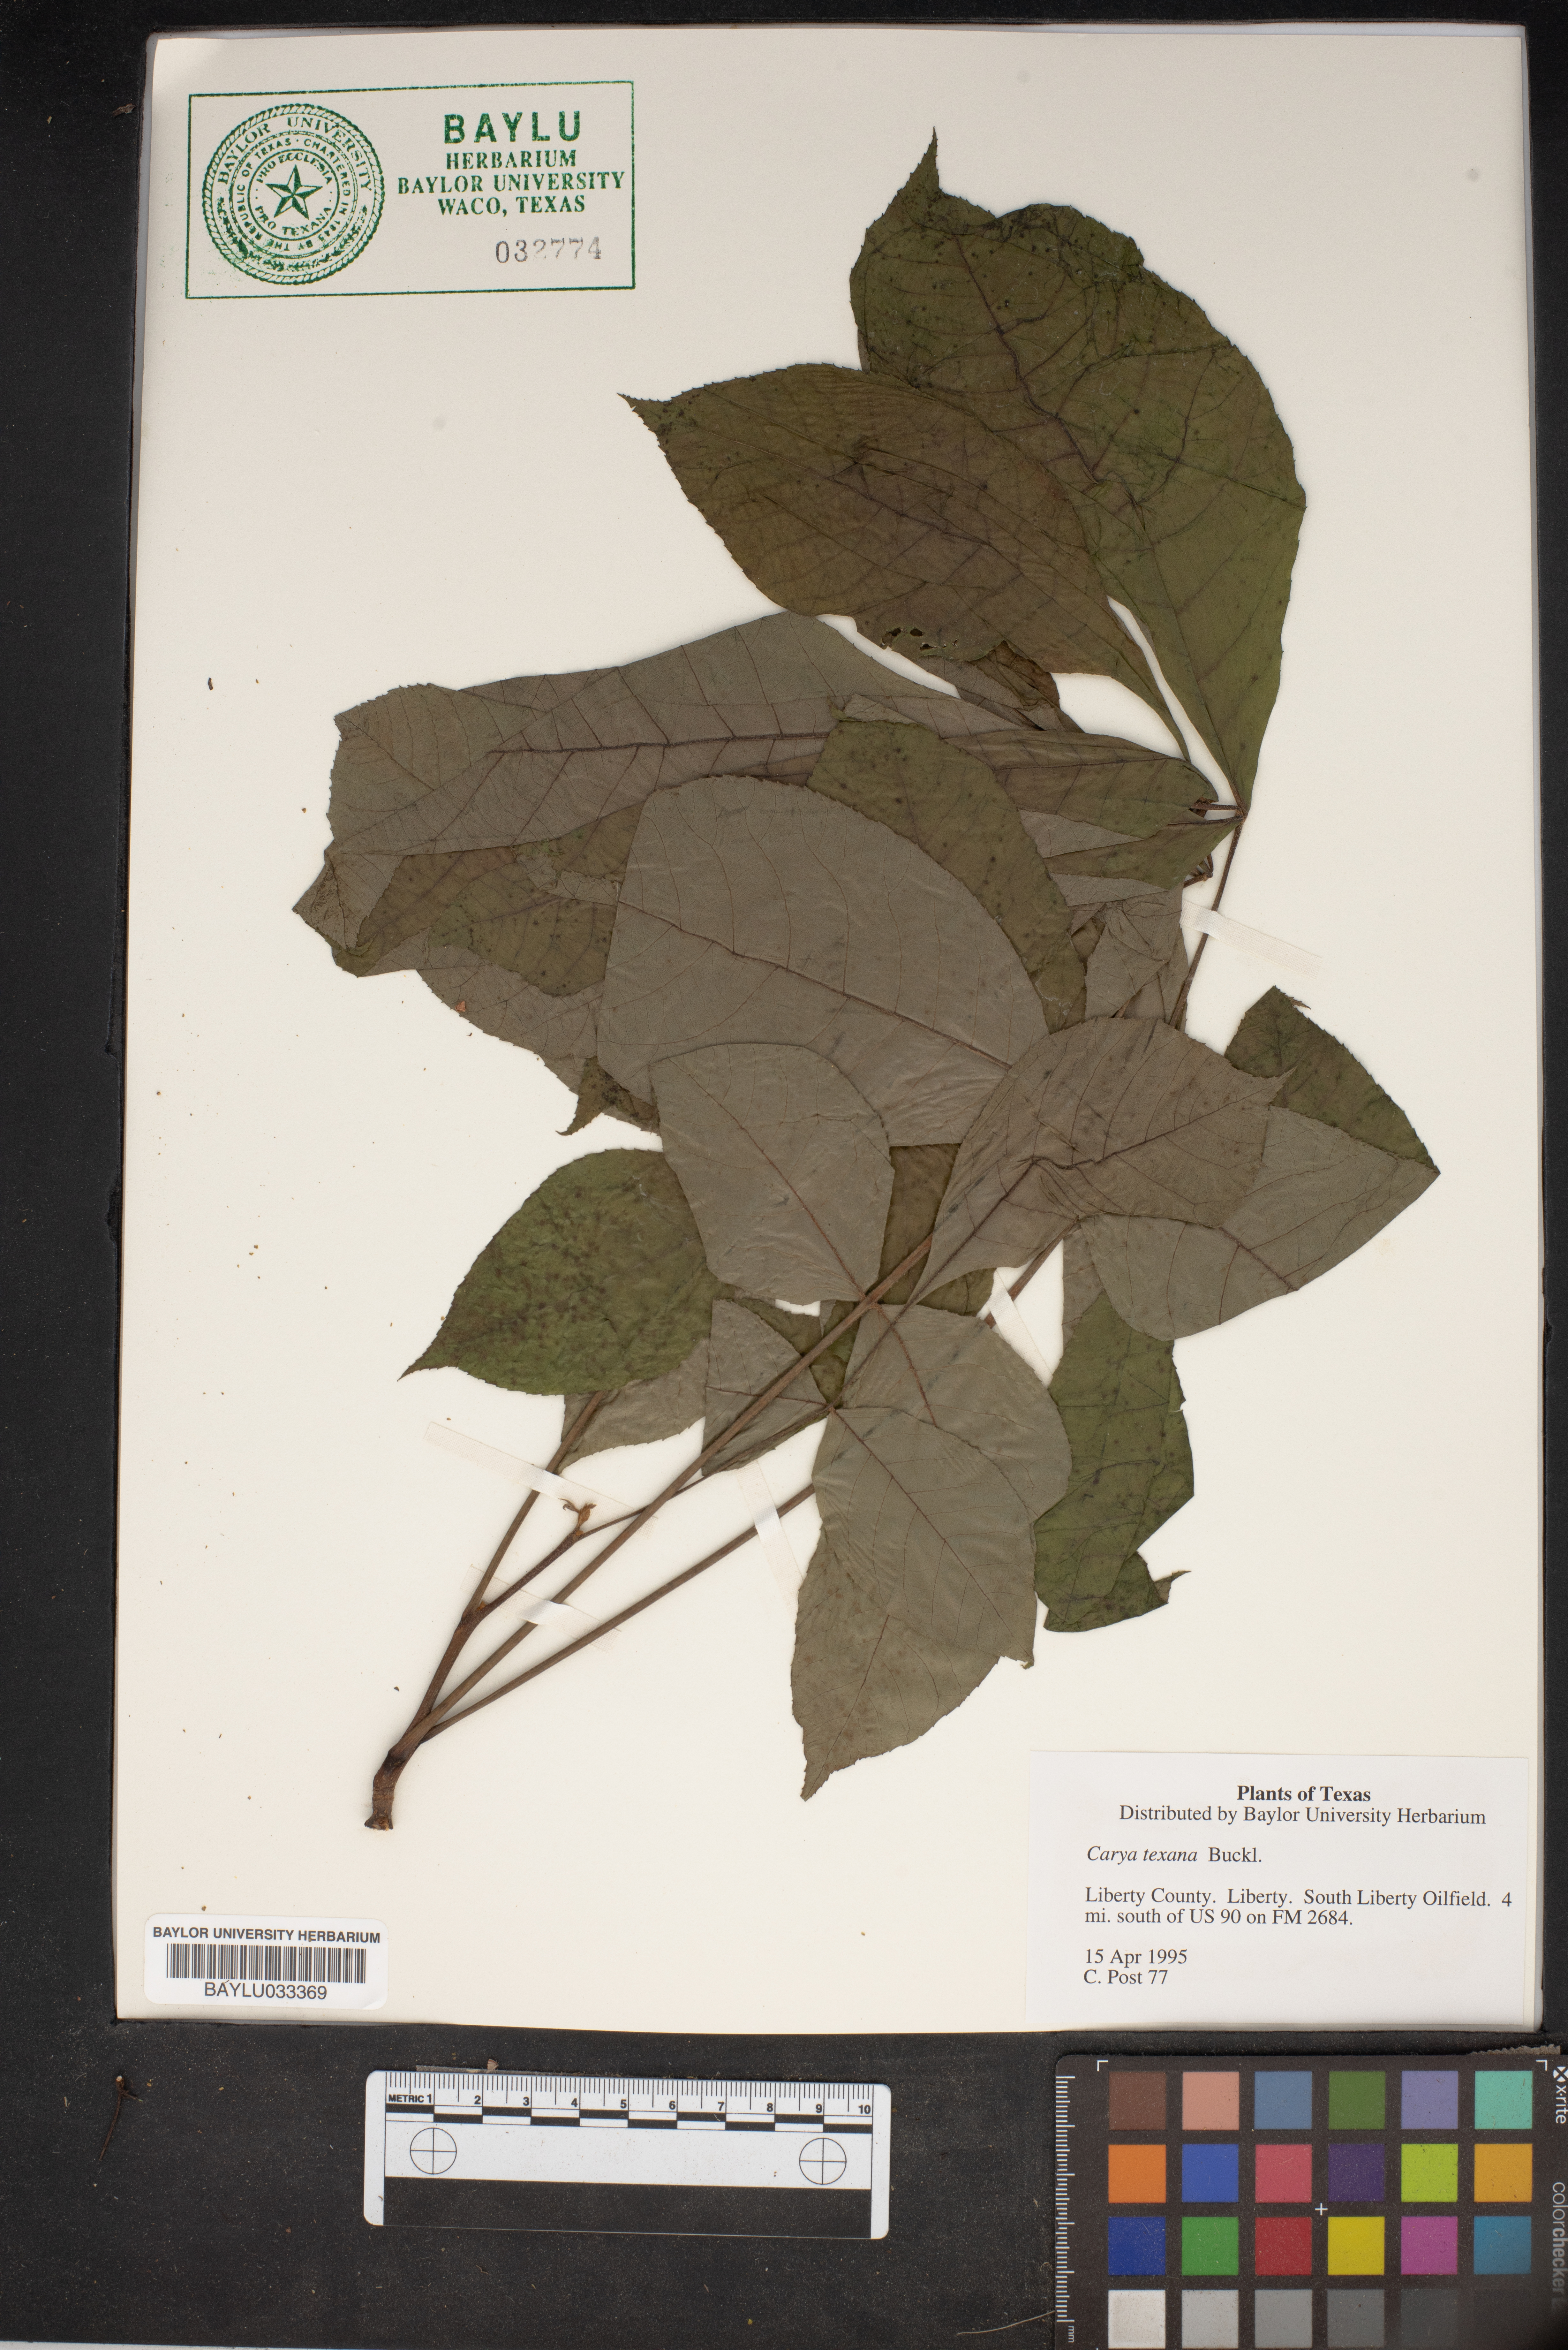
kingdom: Plantae
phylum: Tracheophyta
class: Magnoliopsida
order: Fagales
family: Juglandaceae
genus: Carya
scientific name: Carya texana
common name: Black hickory
